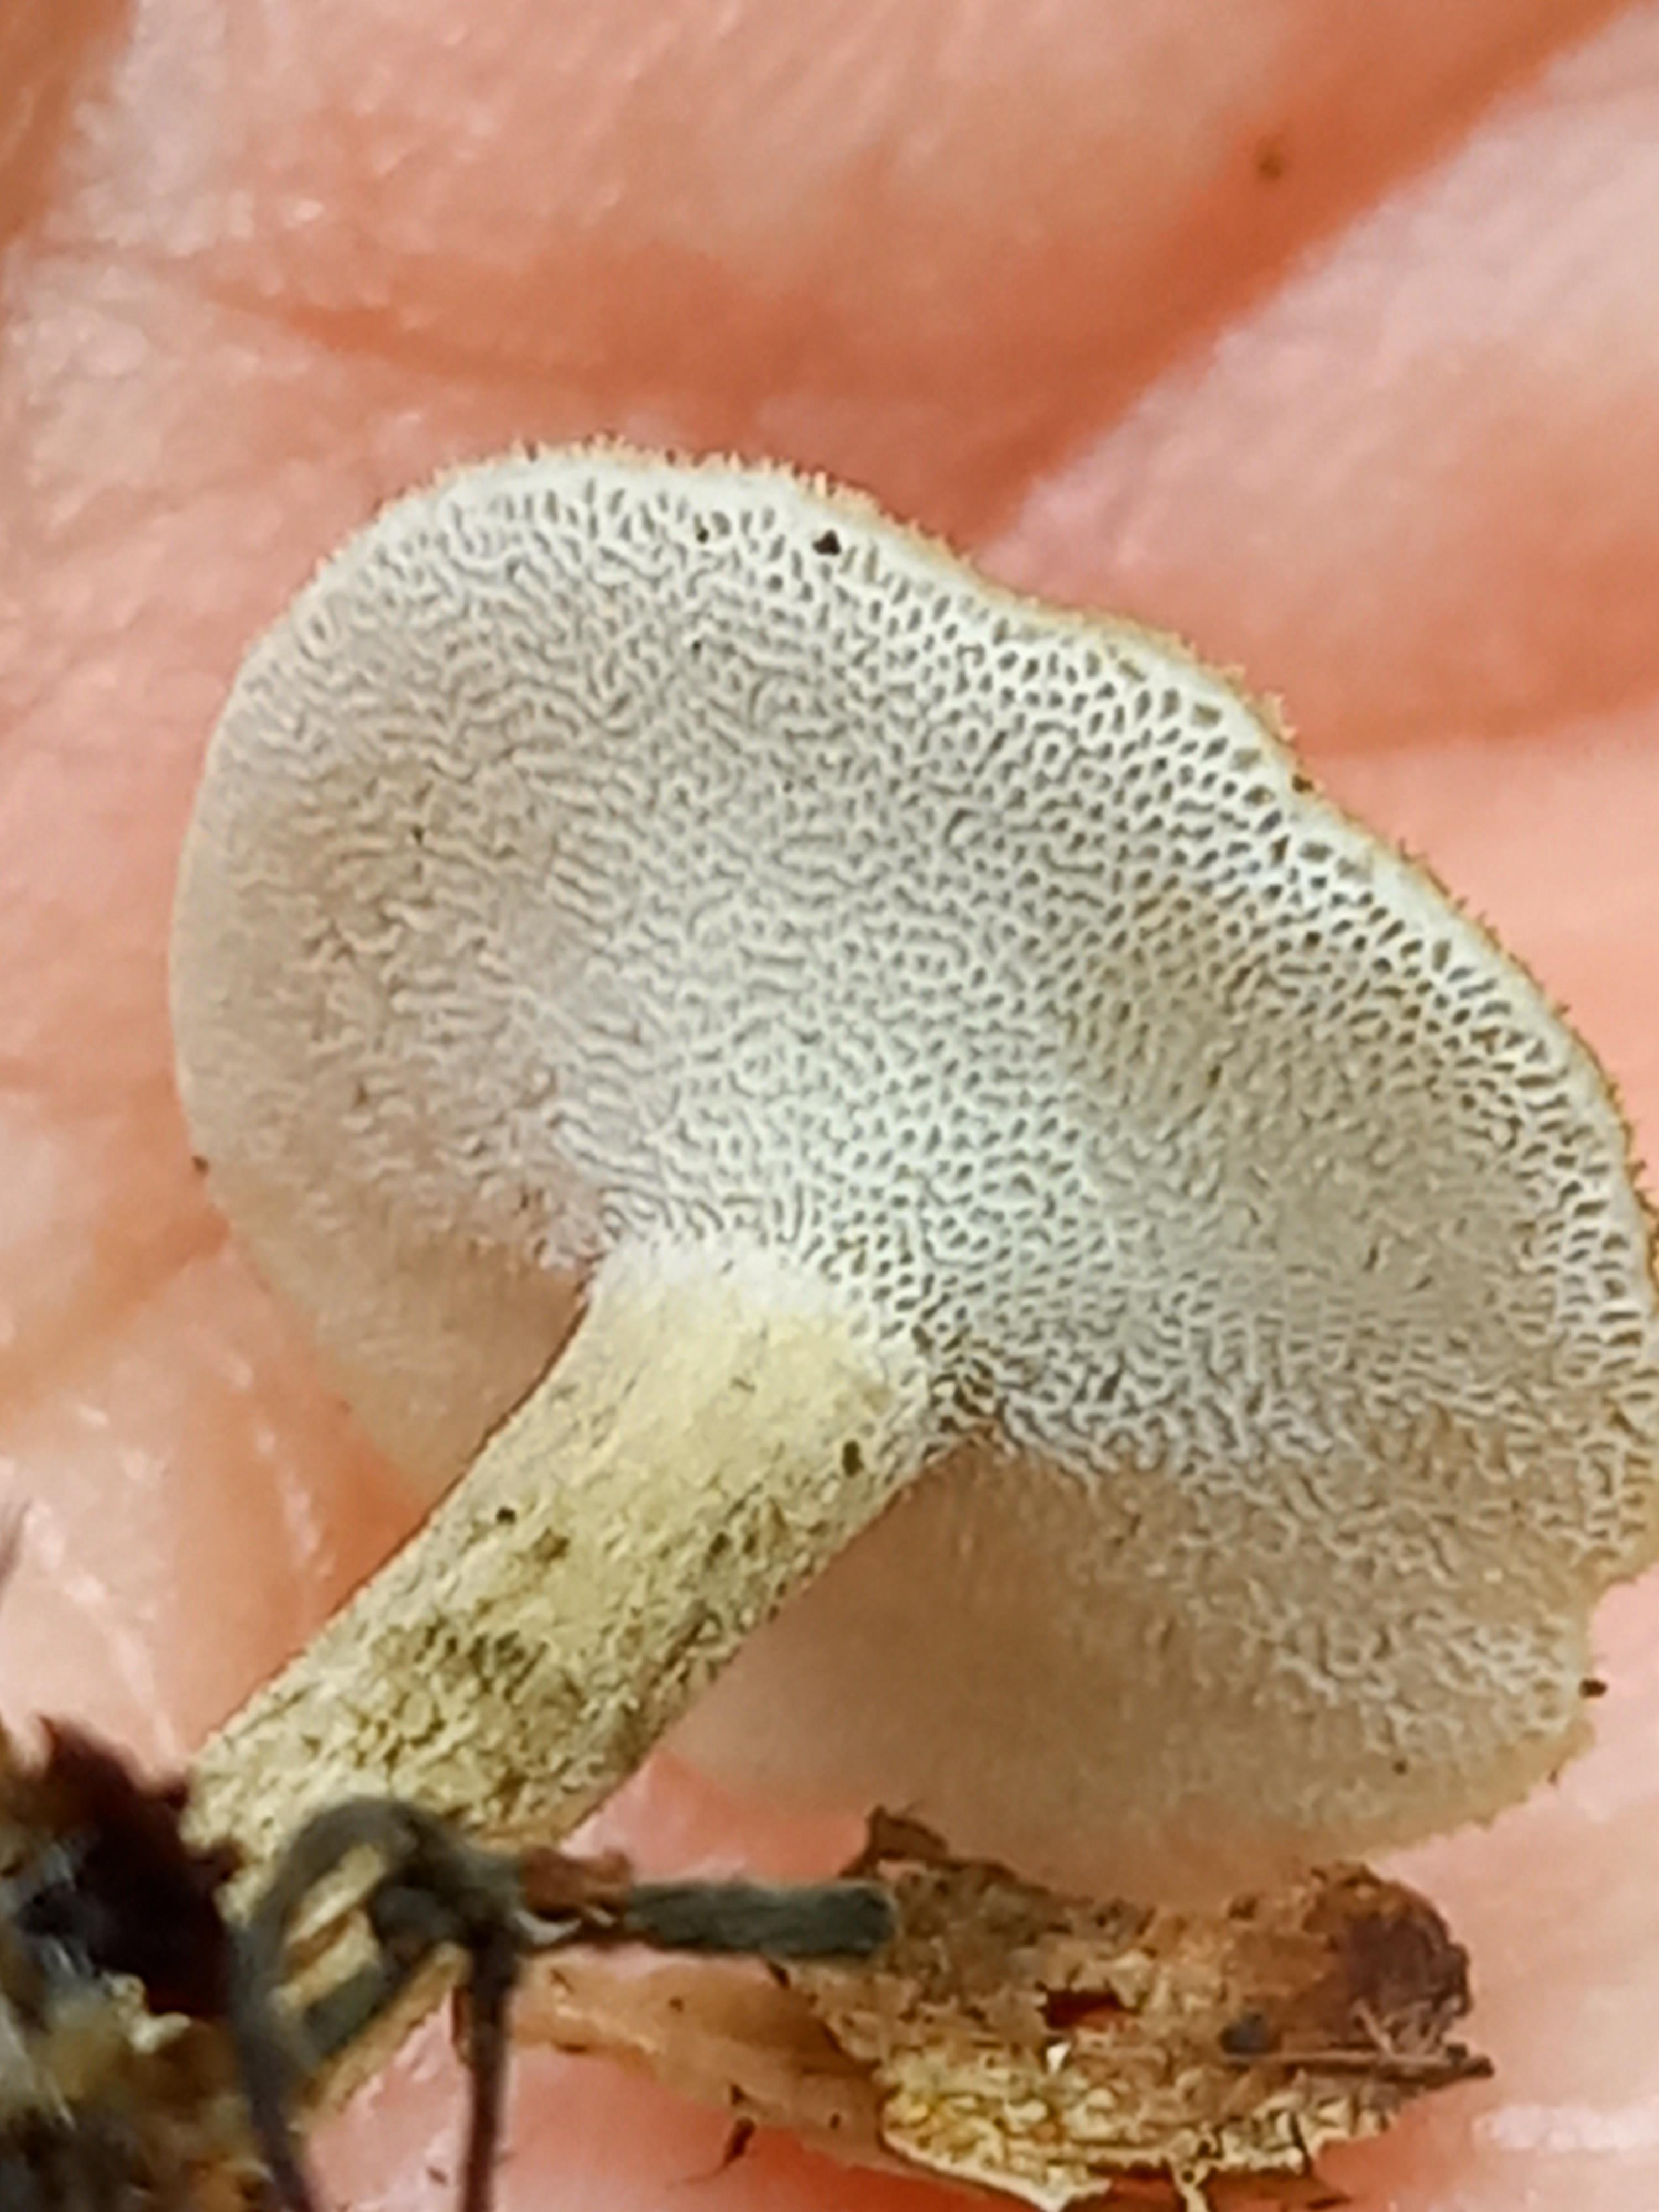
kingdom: Fungi
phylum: Basidiomycota
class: Agaricomycetes
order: Polyporales
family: Polyporaceae
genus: Lentinus
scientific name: Lentinus substrictus
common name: forårs-stilkporesvamp
